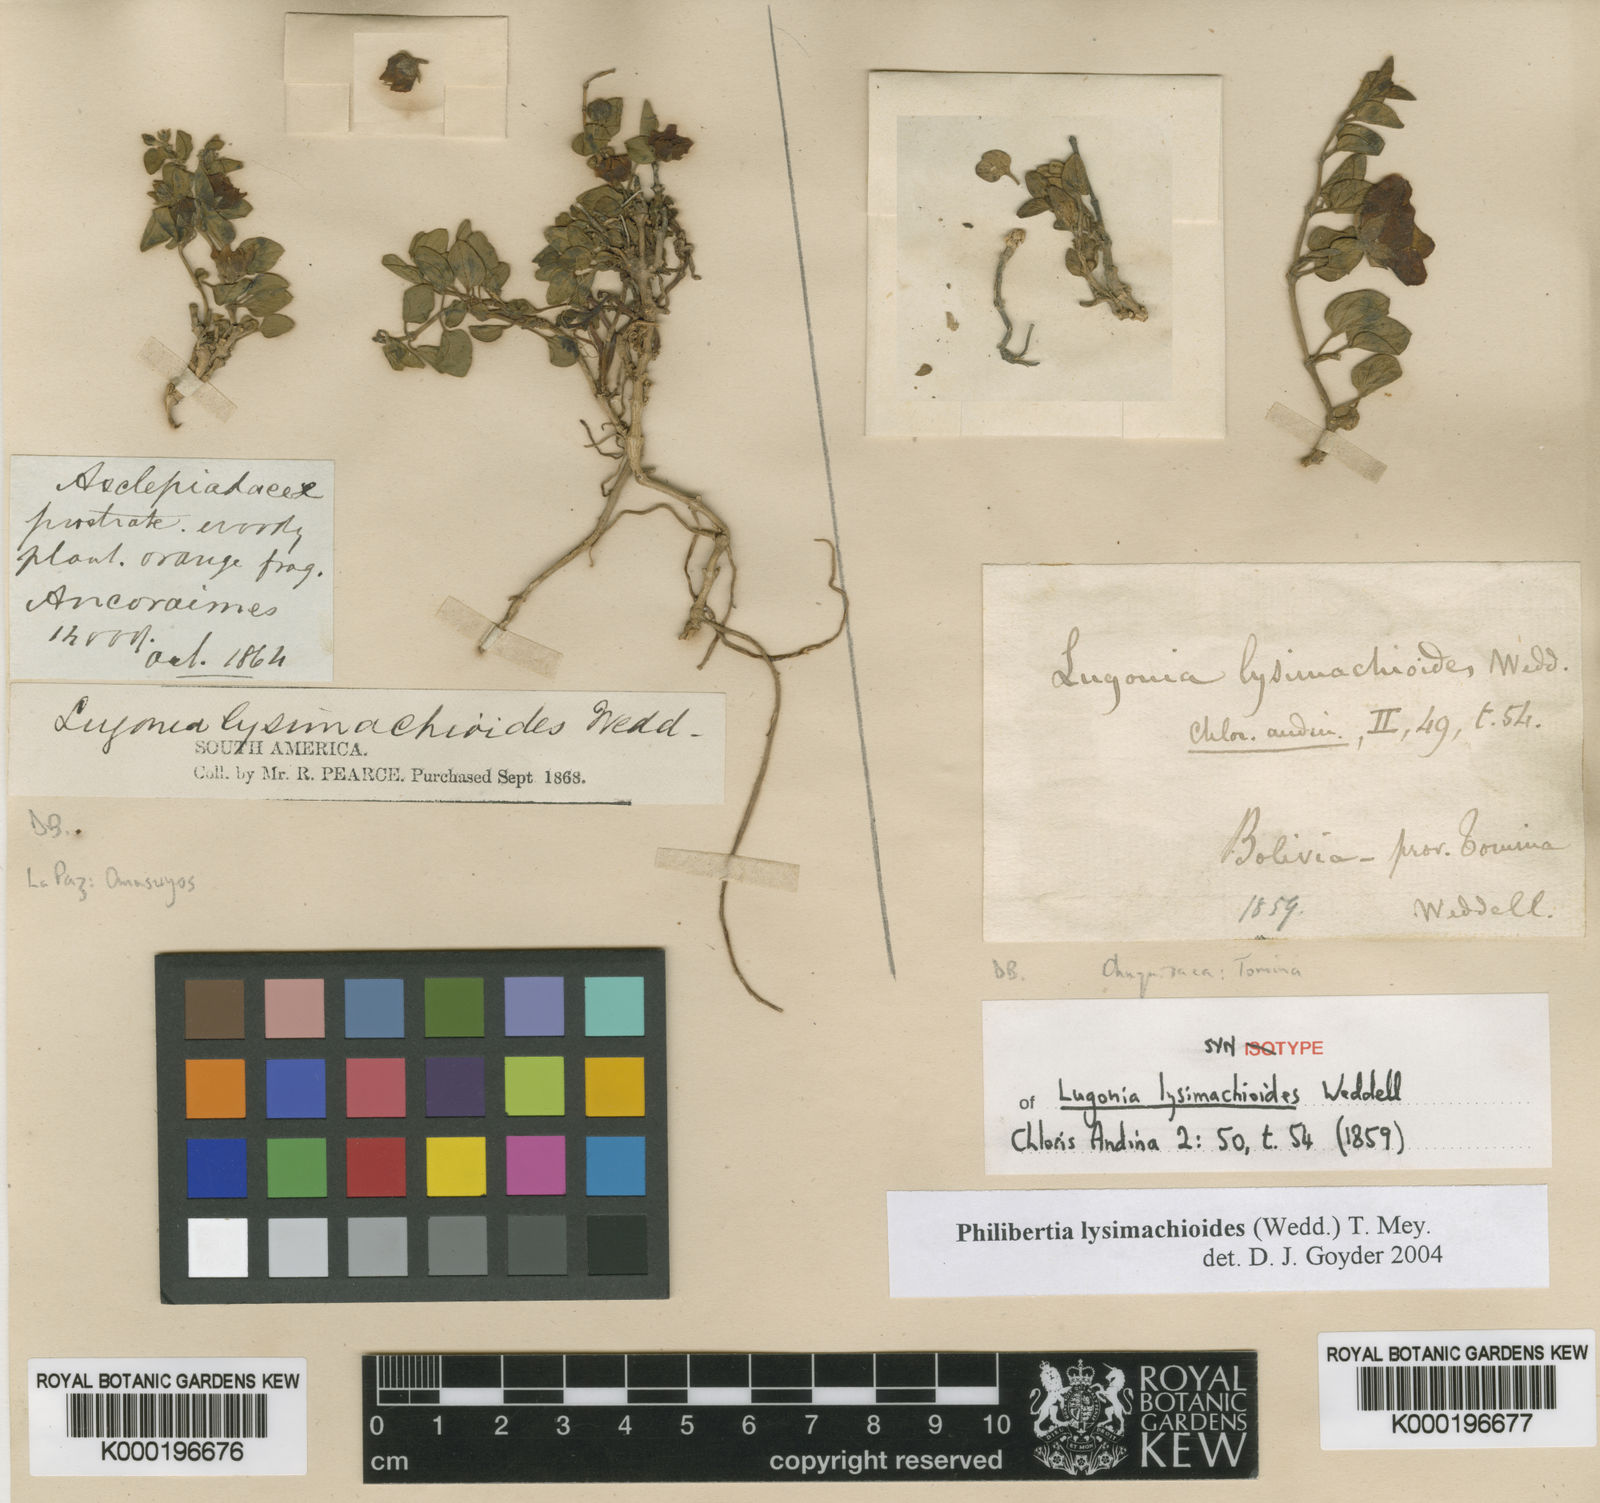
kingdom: Plantae
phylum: Tracheophyta
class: Magnoliopsida
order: Gentianales
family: Apocynaceae
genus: Philibertia
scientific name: Philibertia lysimachioides
